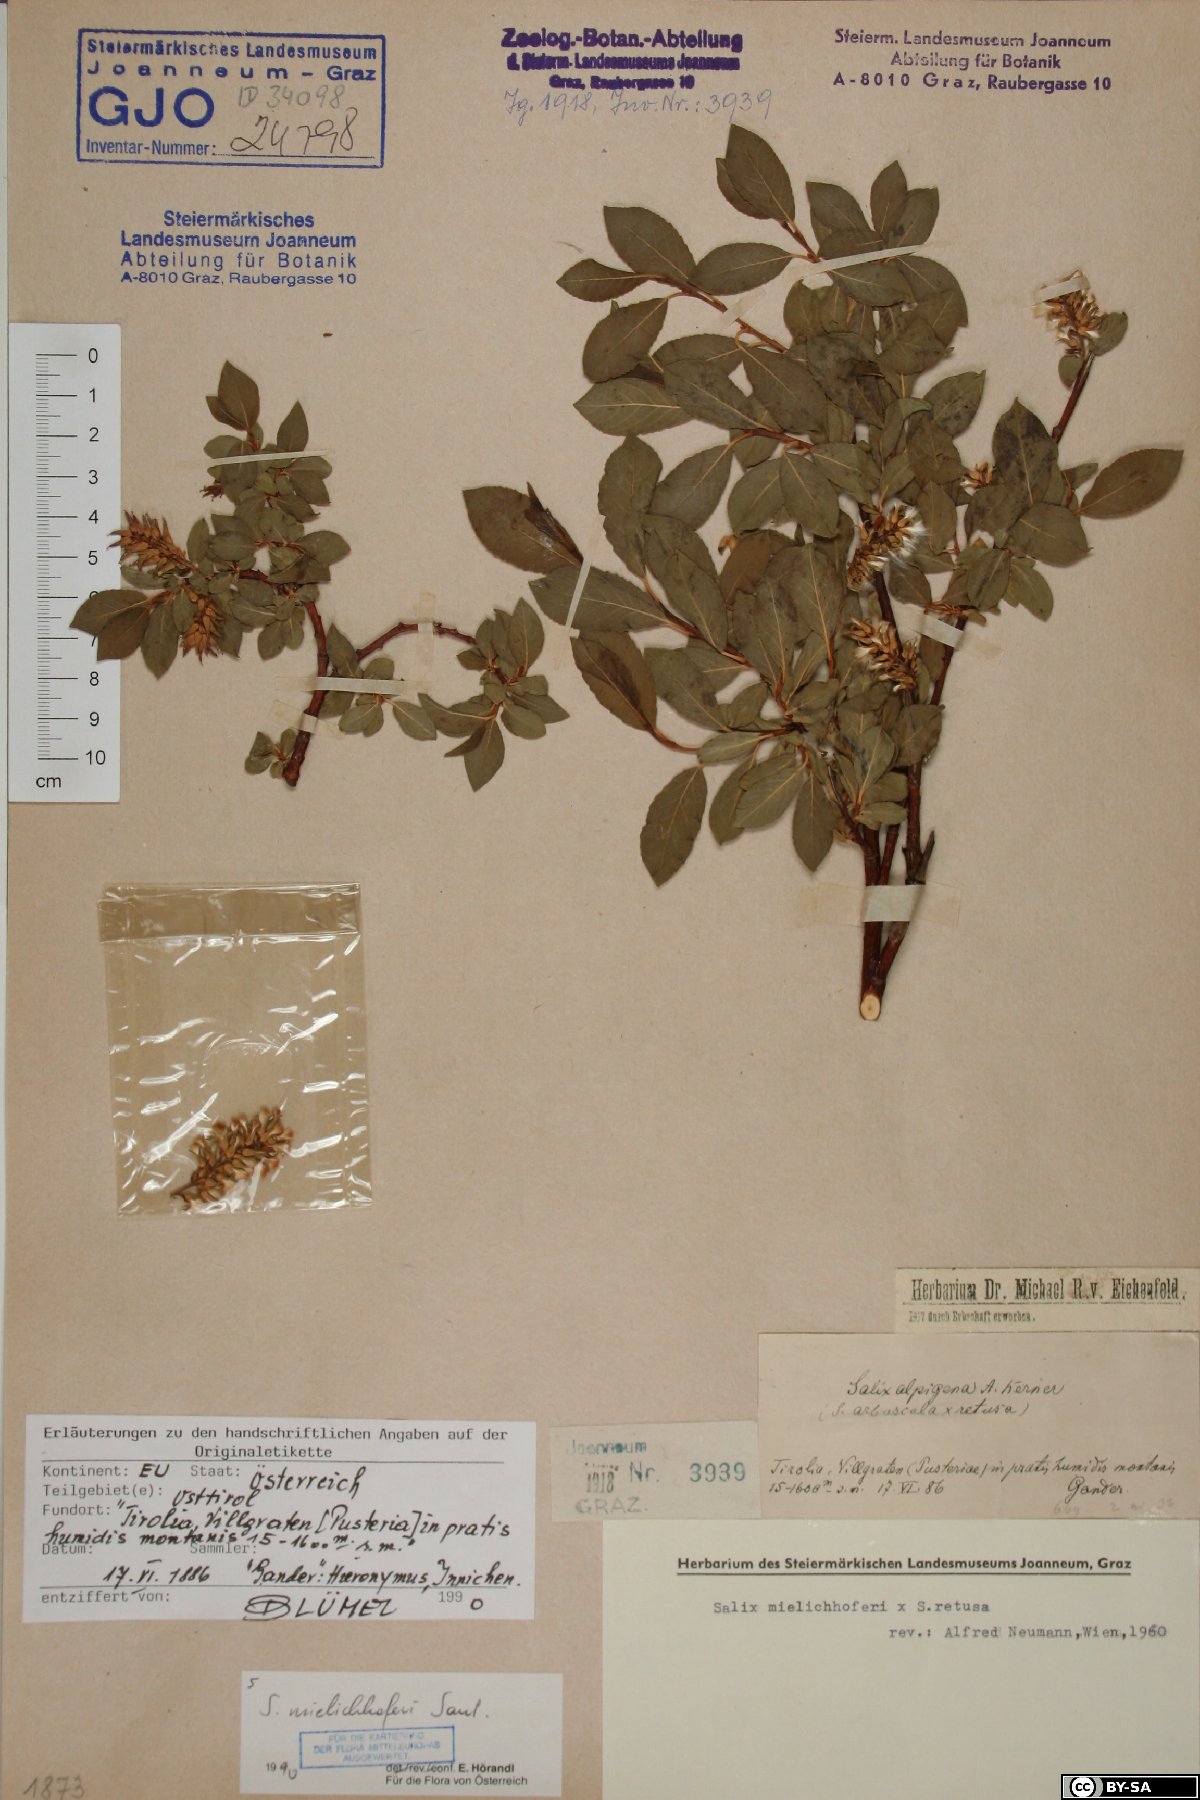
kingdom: Plantae
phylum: Tracheophyta
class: Magnoliopsida
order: Malpighiales
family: Salicaceae
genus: Salix
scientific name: Salix mielichhoferi
